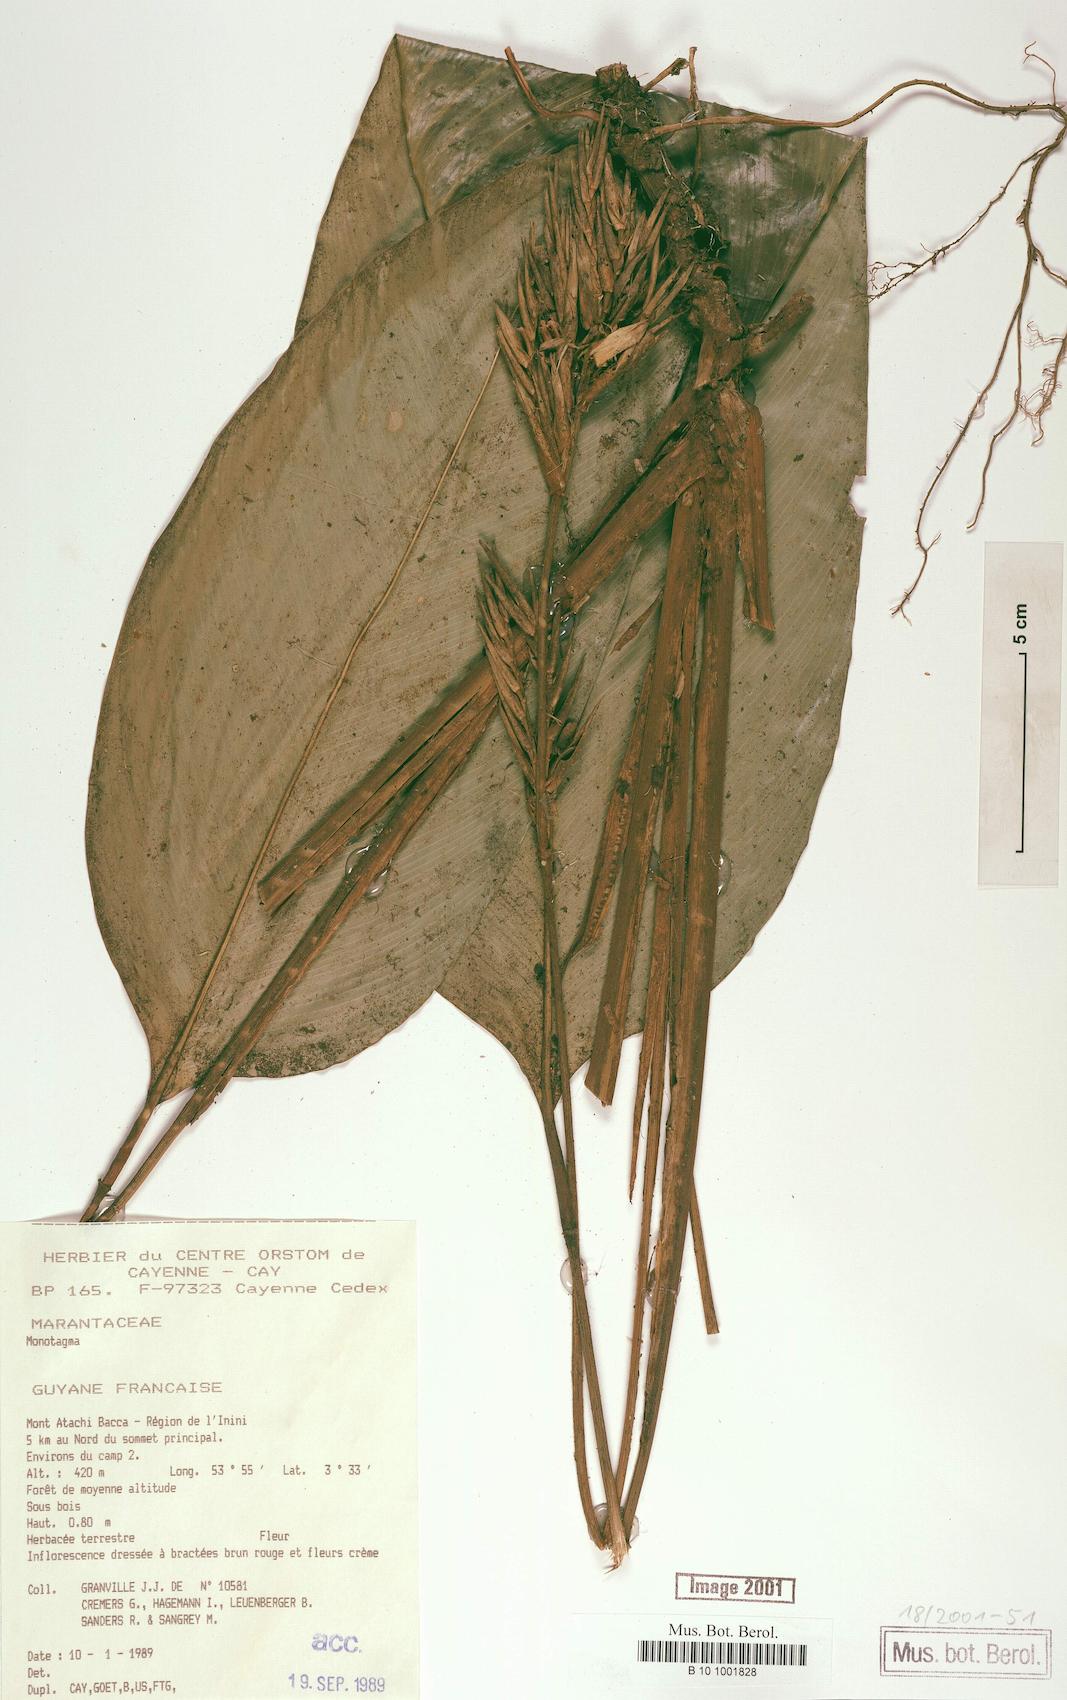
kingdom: Plantae
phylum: Tracheophyta
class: Liliopsida
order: Zingiberales
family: Marantaceae
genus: Monotagma
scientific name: Monotagma
